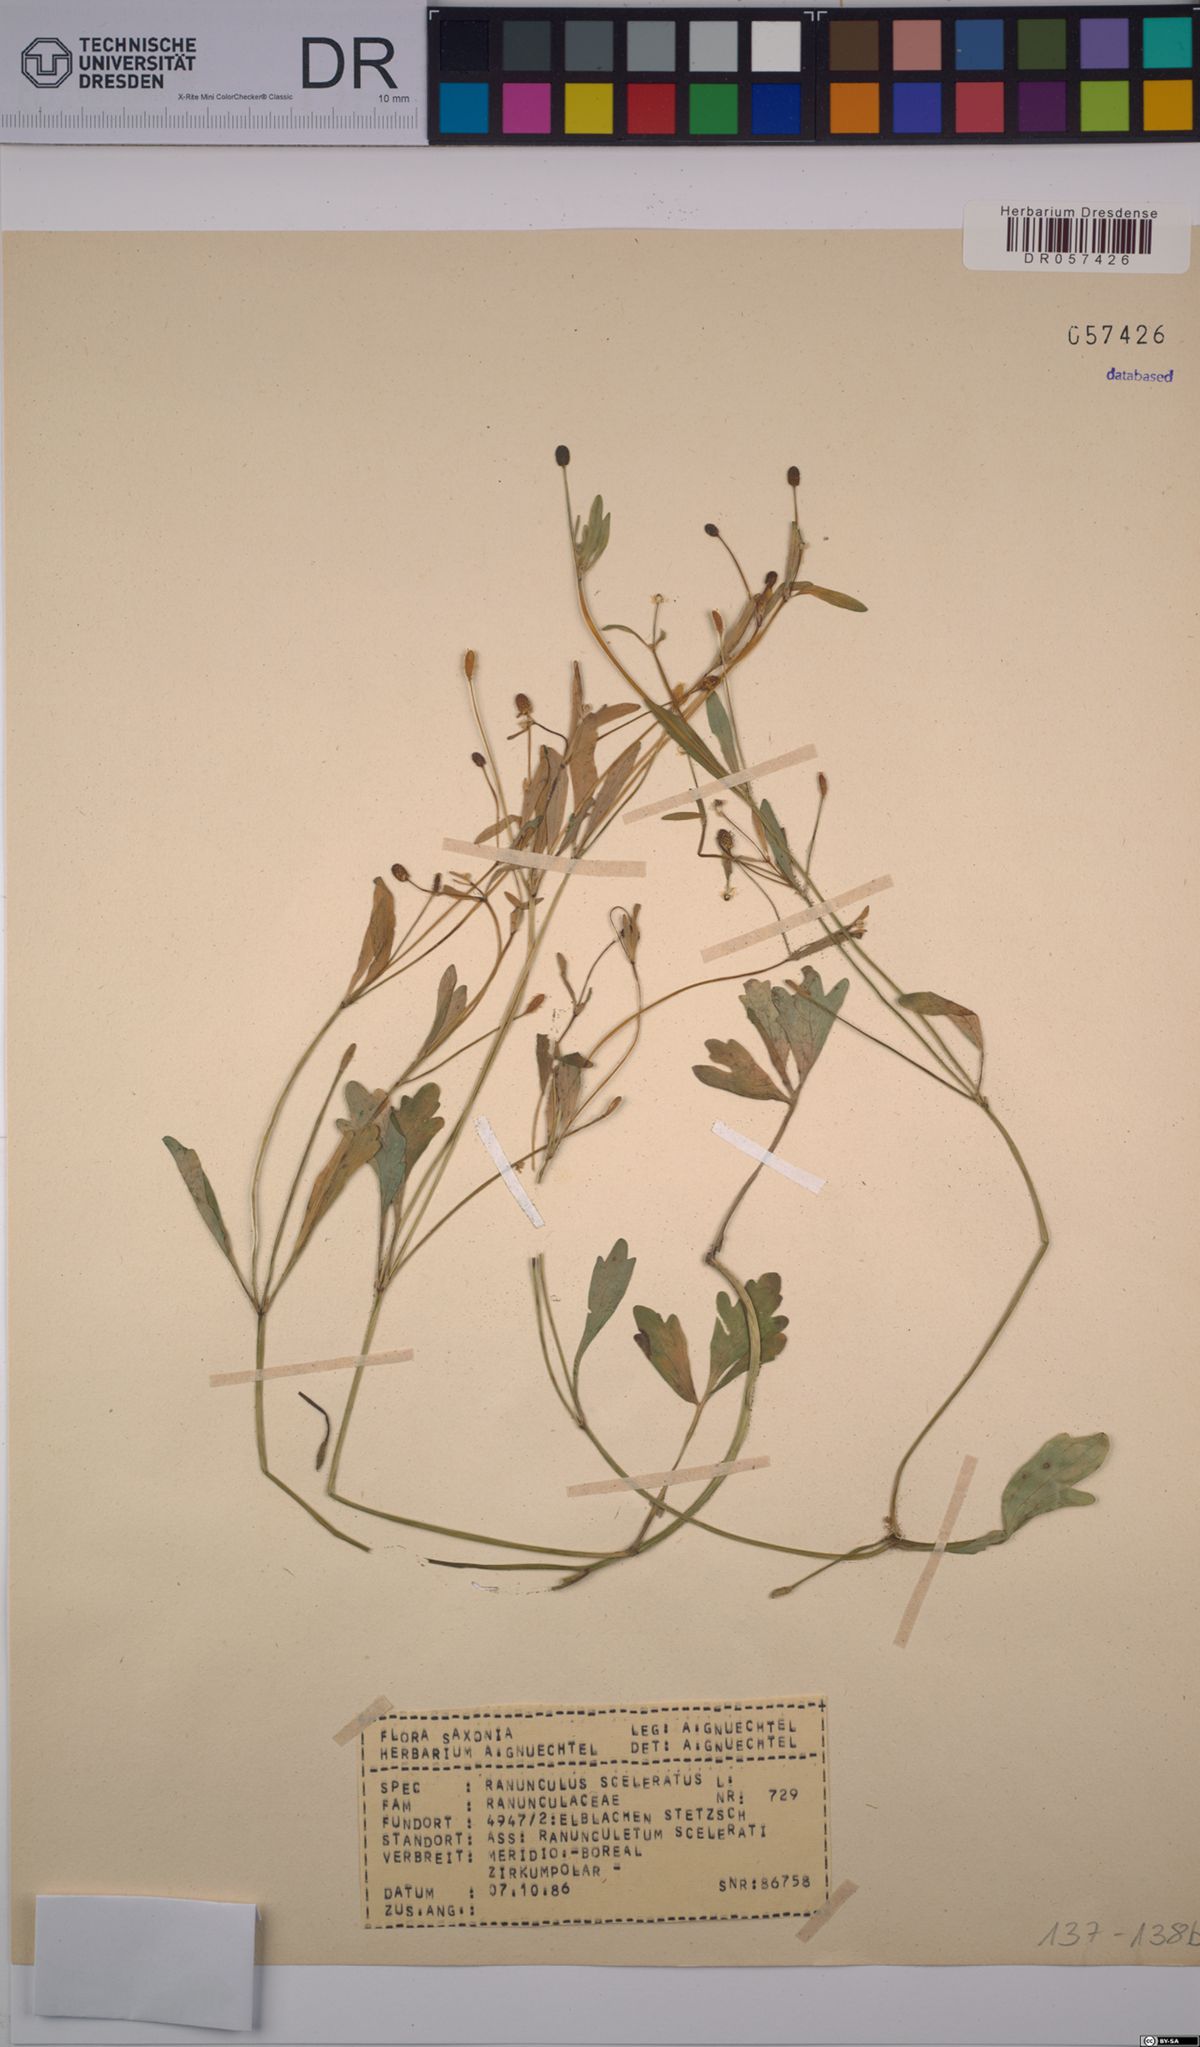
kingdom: Plantae
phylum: Tracheophyta
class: Magnoliopsida
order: Ranunculales
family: Ranunculaceae
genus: Ranunculus
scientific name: Ranunculus sceleratus
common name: Celery-leaved buttercup
